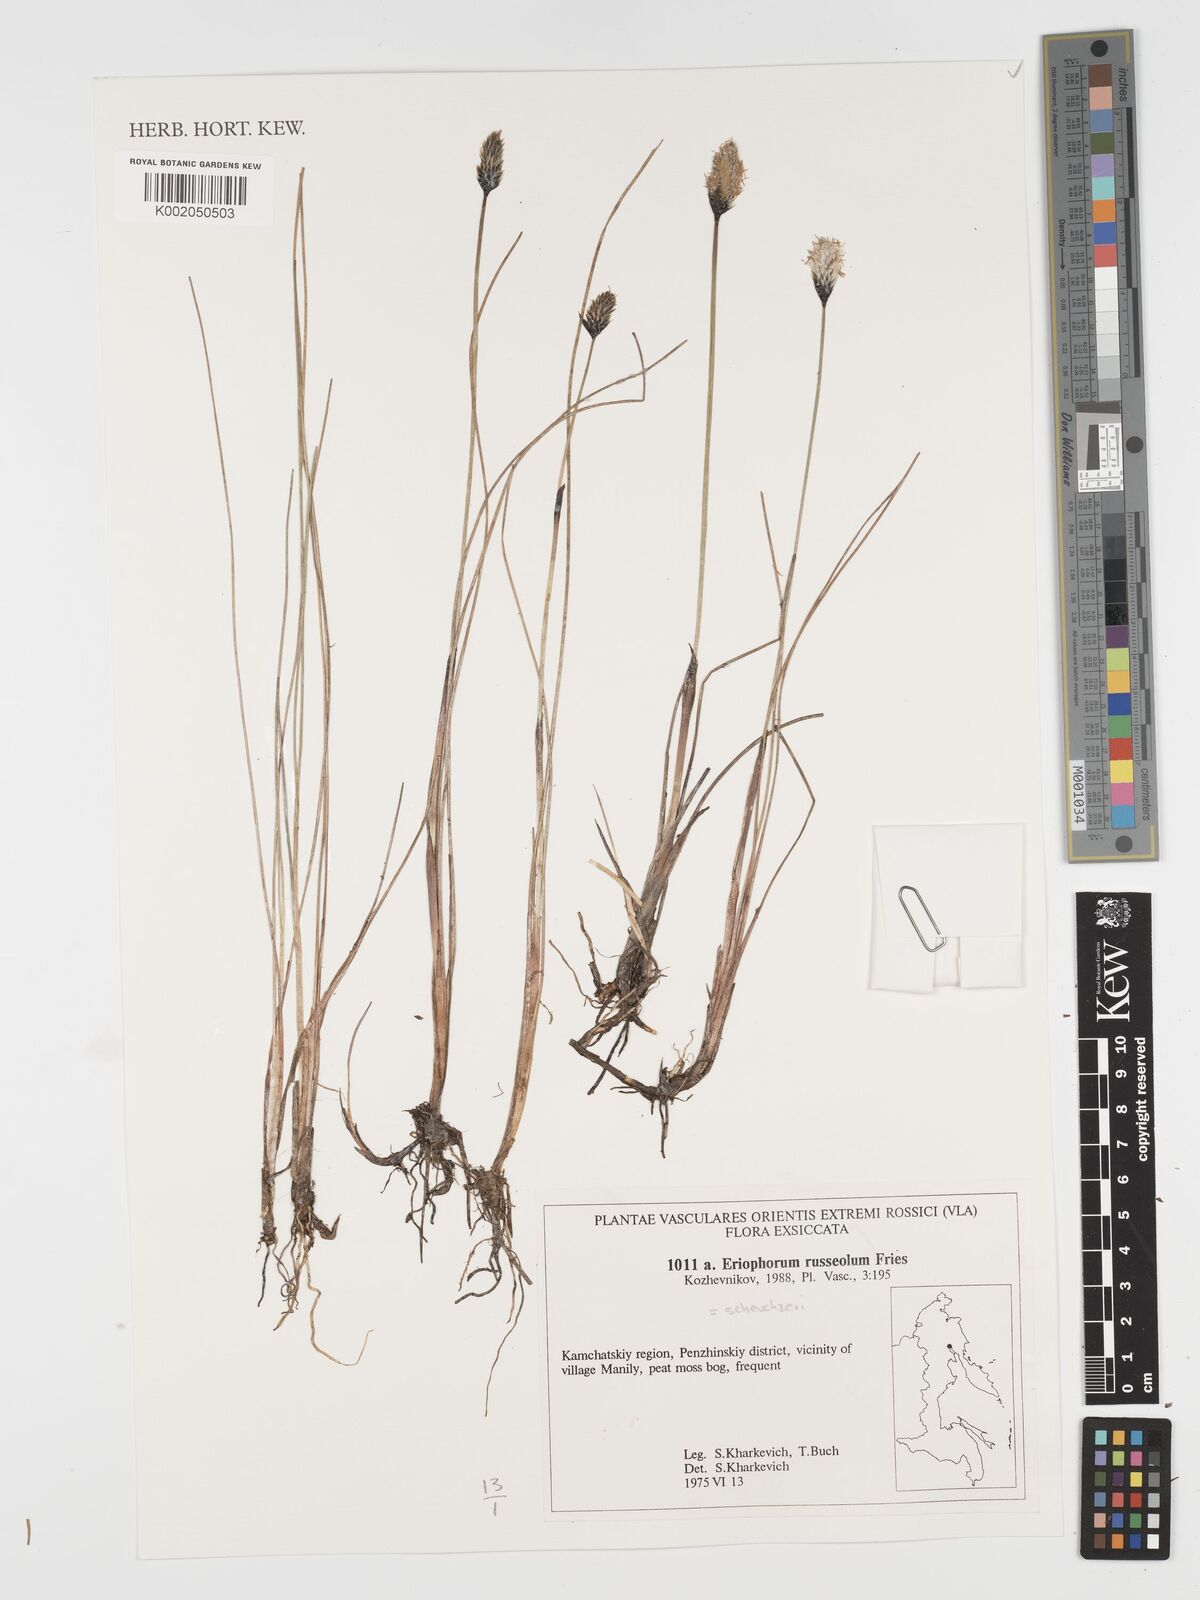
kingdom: Plantae
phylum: Tracheophyta
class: Liliopsida
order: Poales
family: Cyperaceae
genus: Eriophorum
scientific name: Eriophorum medium
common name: Intermediate cottongrass
